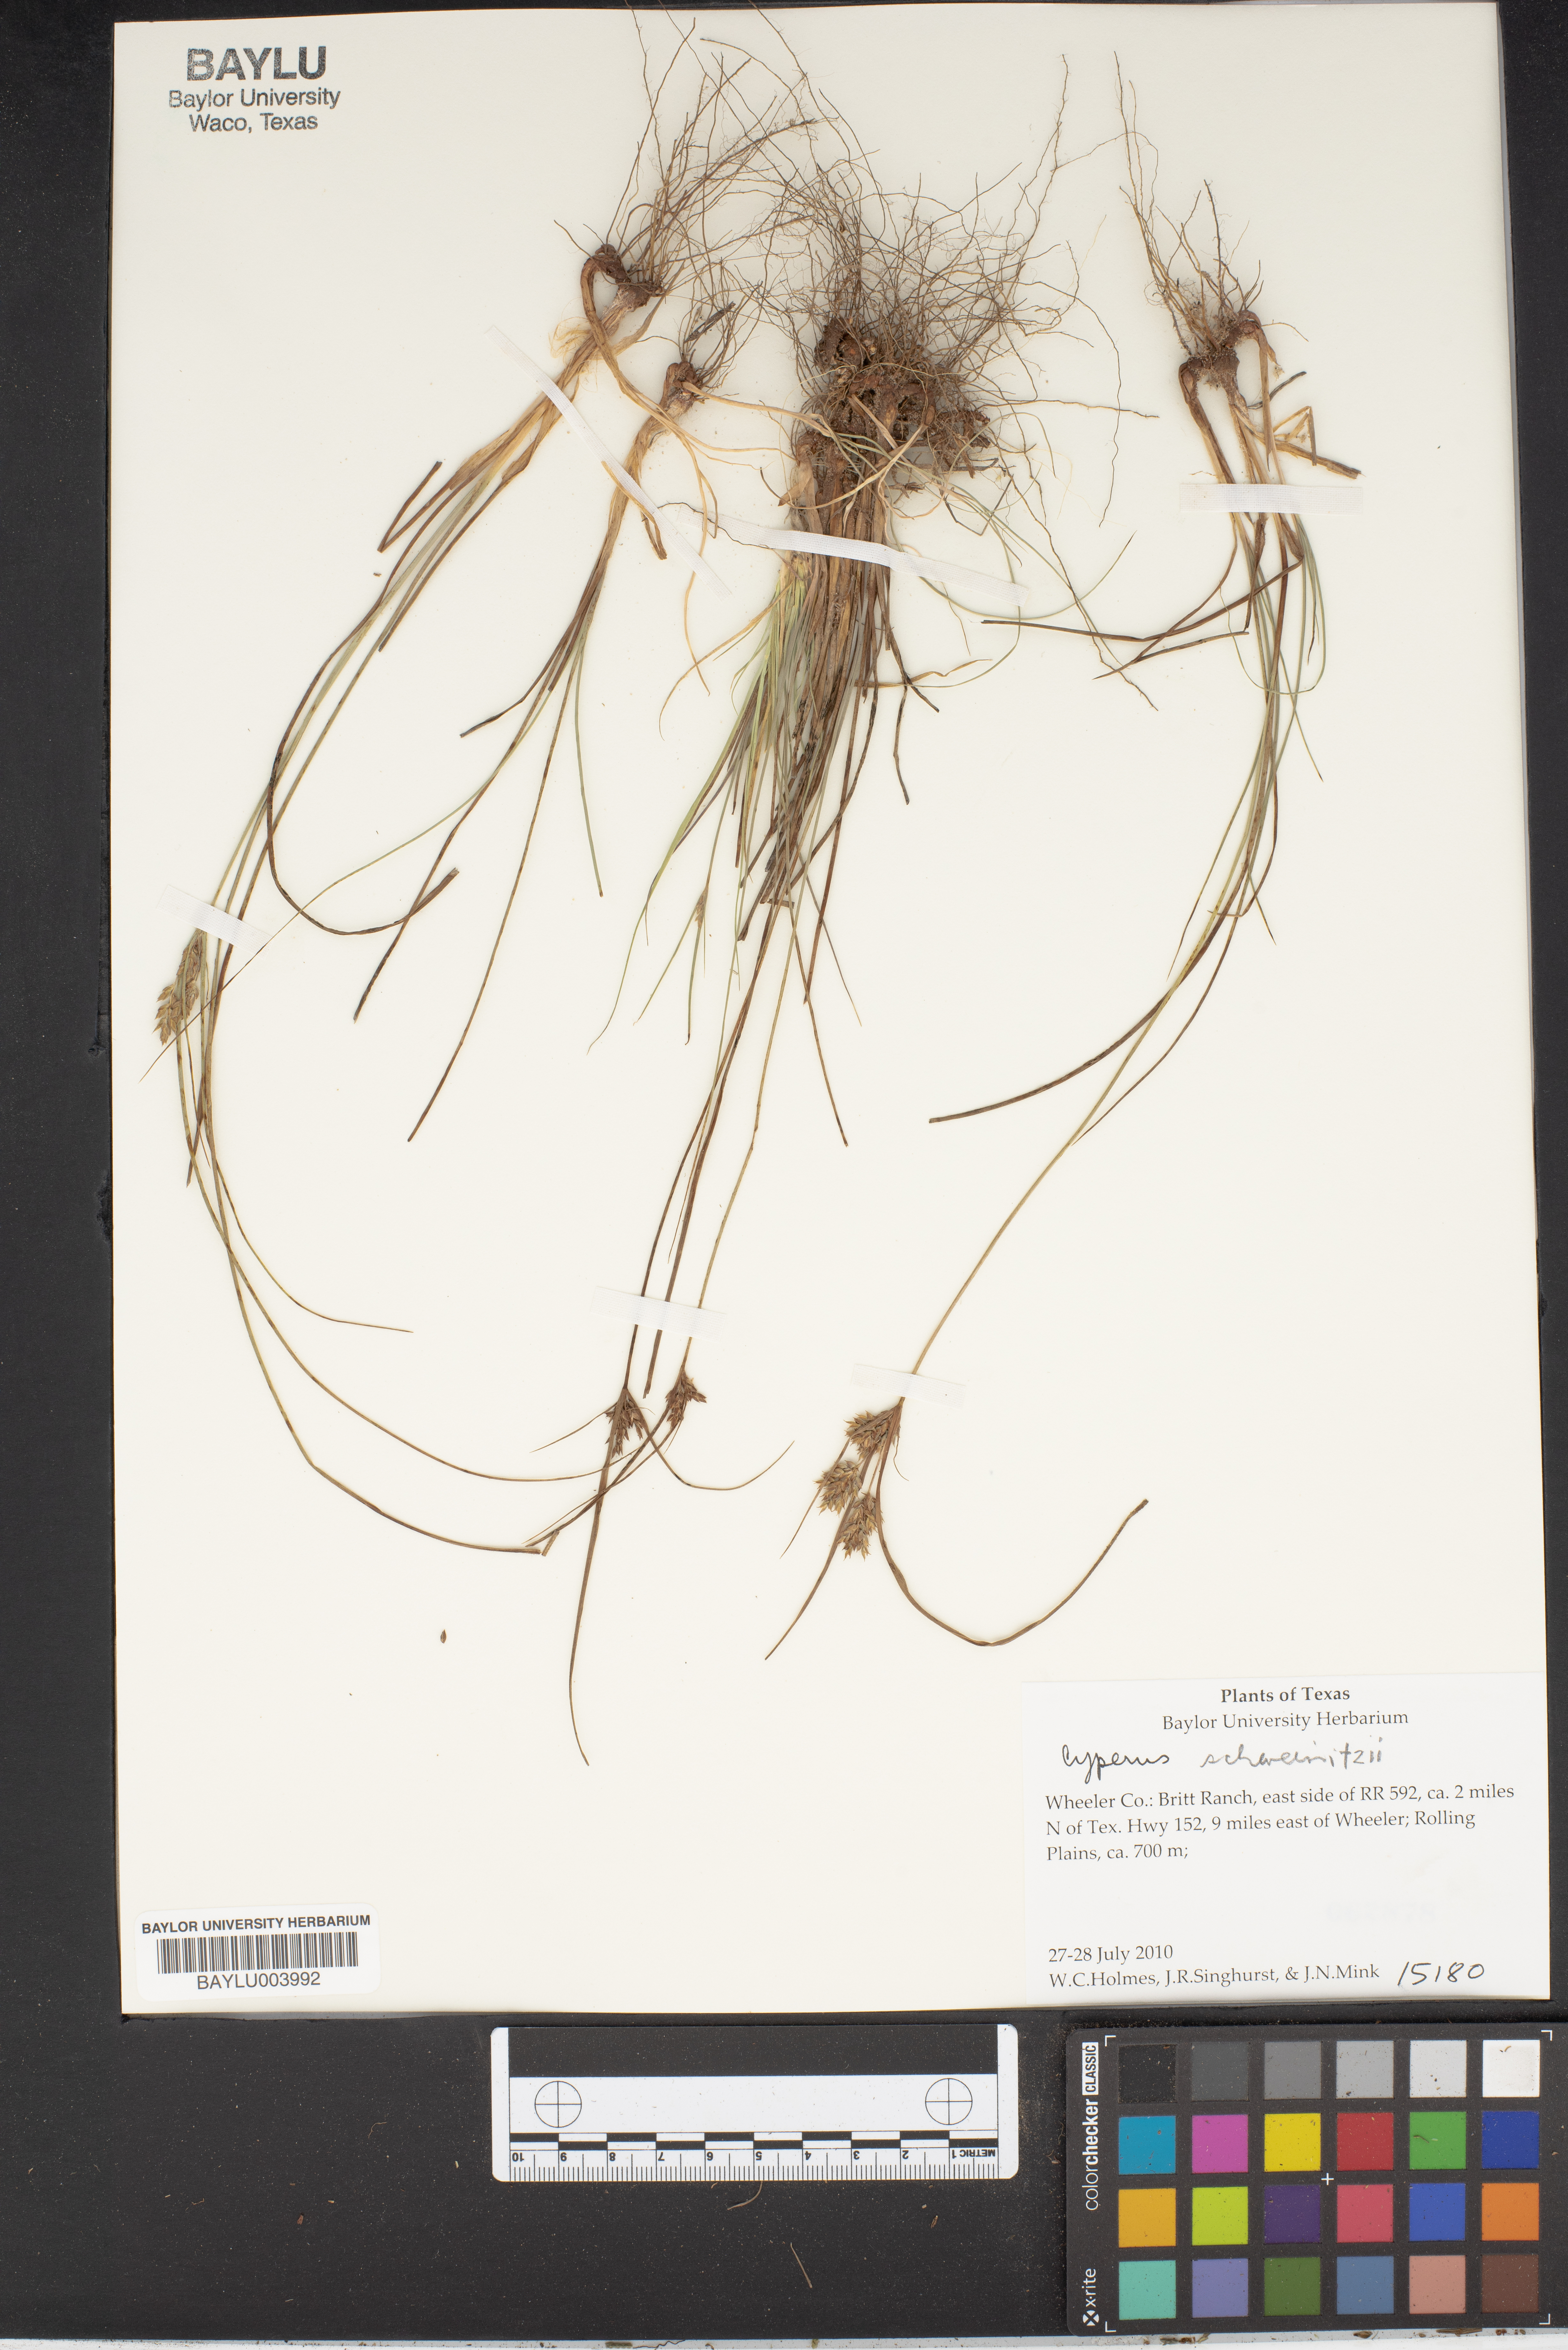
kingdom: Plantae
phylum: Tracheophyta
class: Liliopsida
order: Poales
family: Cyperaceae
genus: Cyperus
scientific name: Cyperus schaffneri
